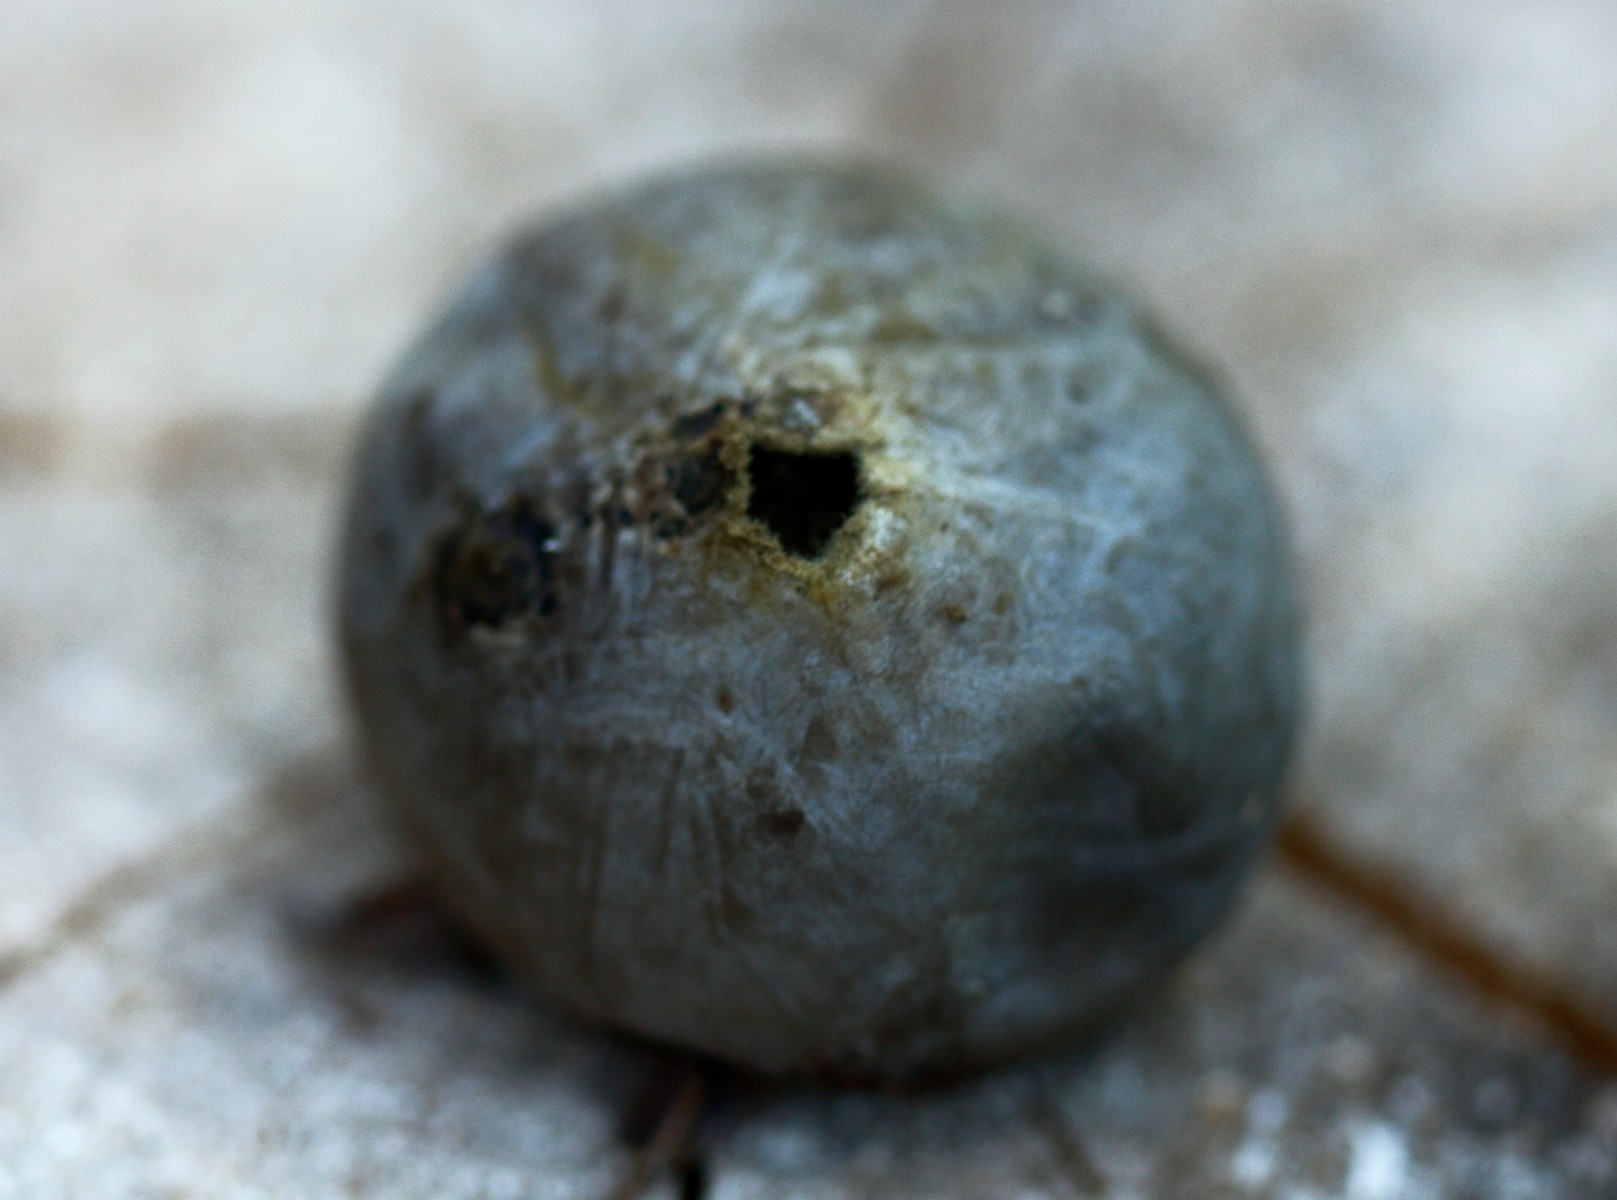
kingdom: Fungi
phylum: Basidiomycota
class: Agaricomycetes
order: Agaricales
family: Lycoperdaceae
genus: Bovista
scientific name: Bovista plumbea
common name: blygrå bovist
